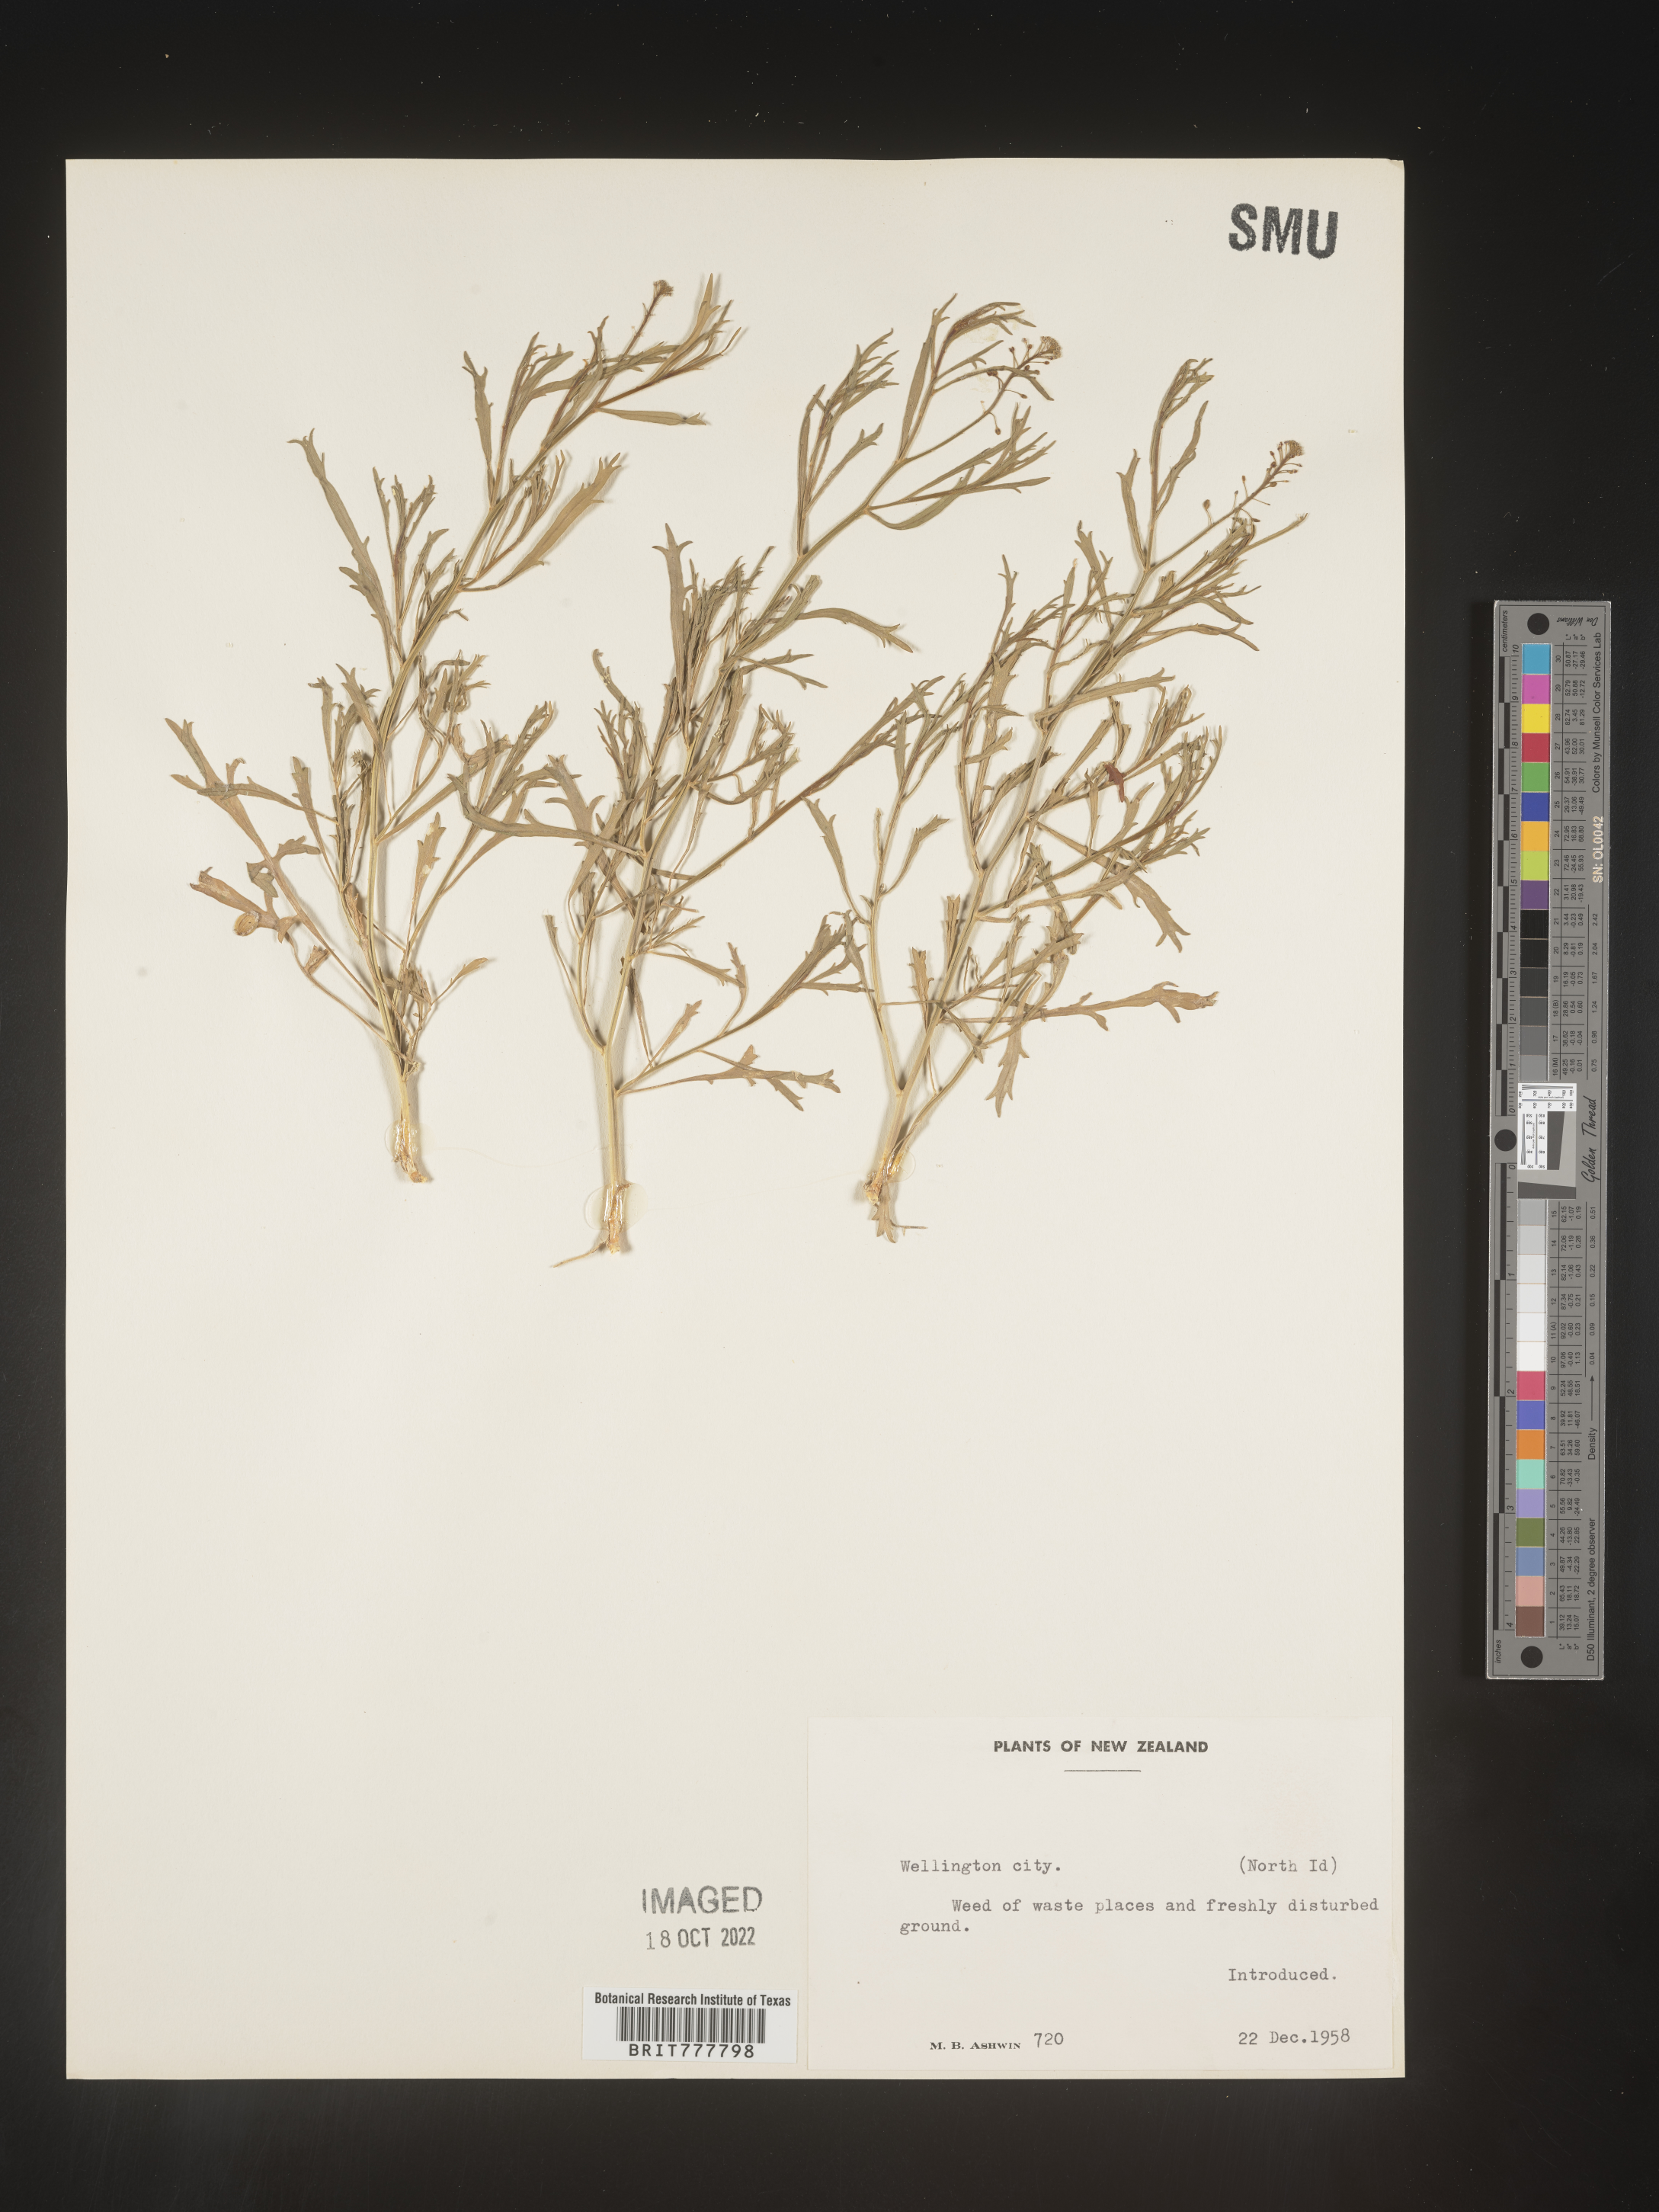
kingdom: Plantae
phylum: Tracheophyta
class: Magnoliopsida
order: Brassicales
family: Brassicaceae
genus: Lepidium
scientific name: Lepidium
